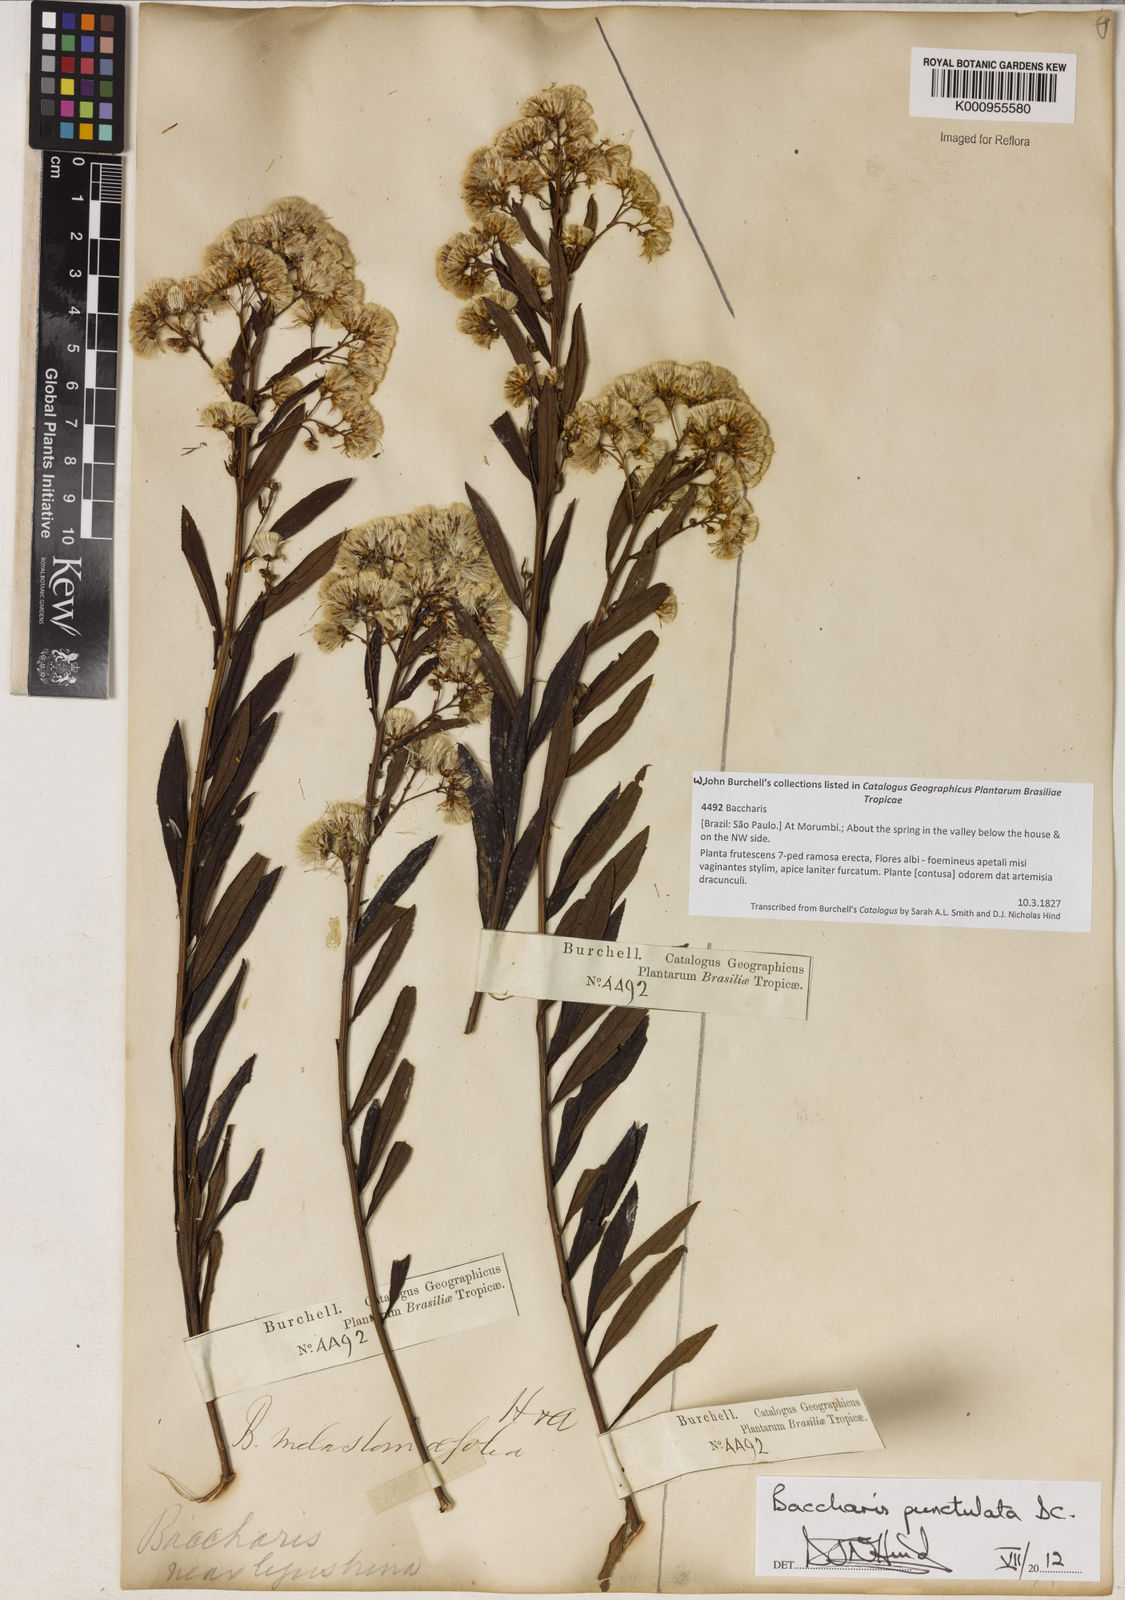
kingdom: Plantae
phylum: Tracheophyta
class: Magnoliopsida
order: Asterales
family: Asteraceae
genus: Baccharis
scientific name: Baccharis punctulata
